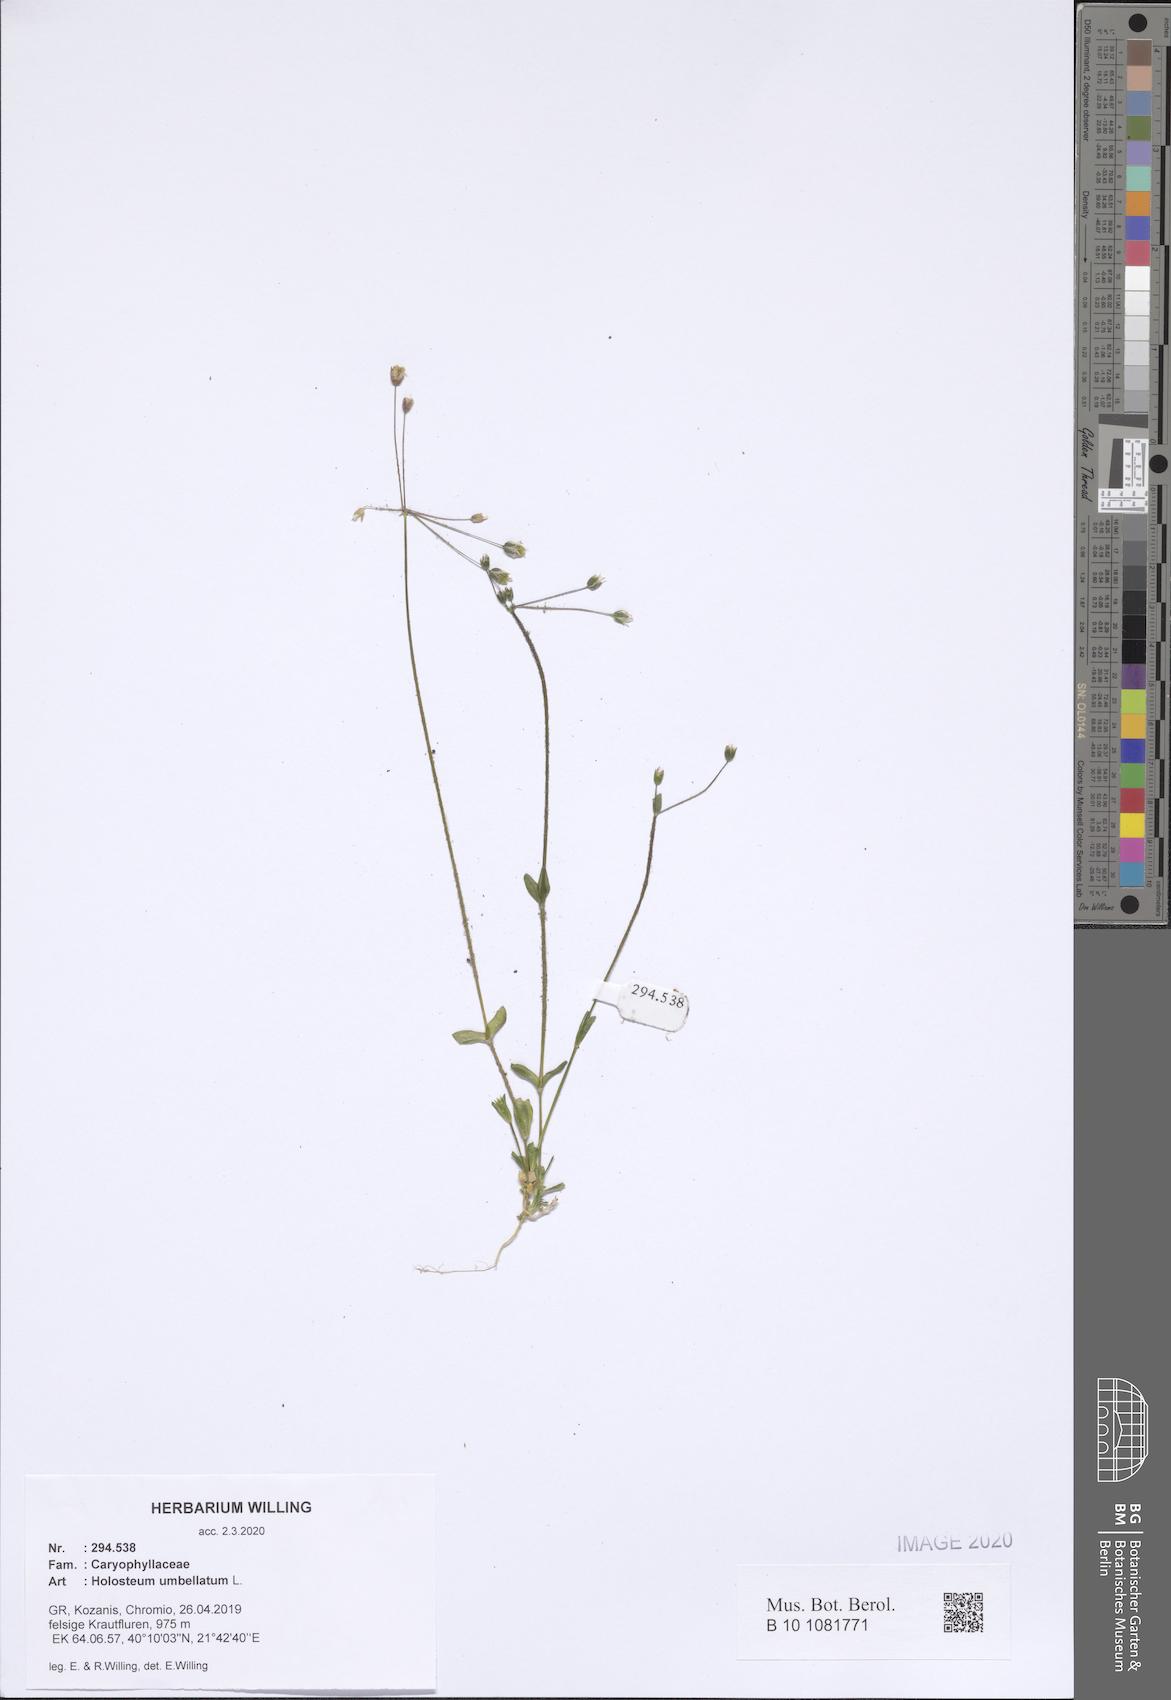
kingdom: Plantae
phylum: Tracheophyta
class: Magnoliopsida
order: Caryophyllales
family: Caryophyllaceae
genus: Holosteum
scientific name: Holosteum umbellatum
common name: Jagged chickweed
